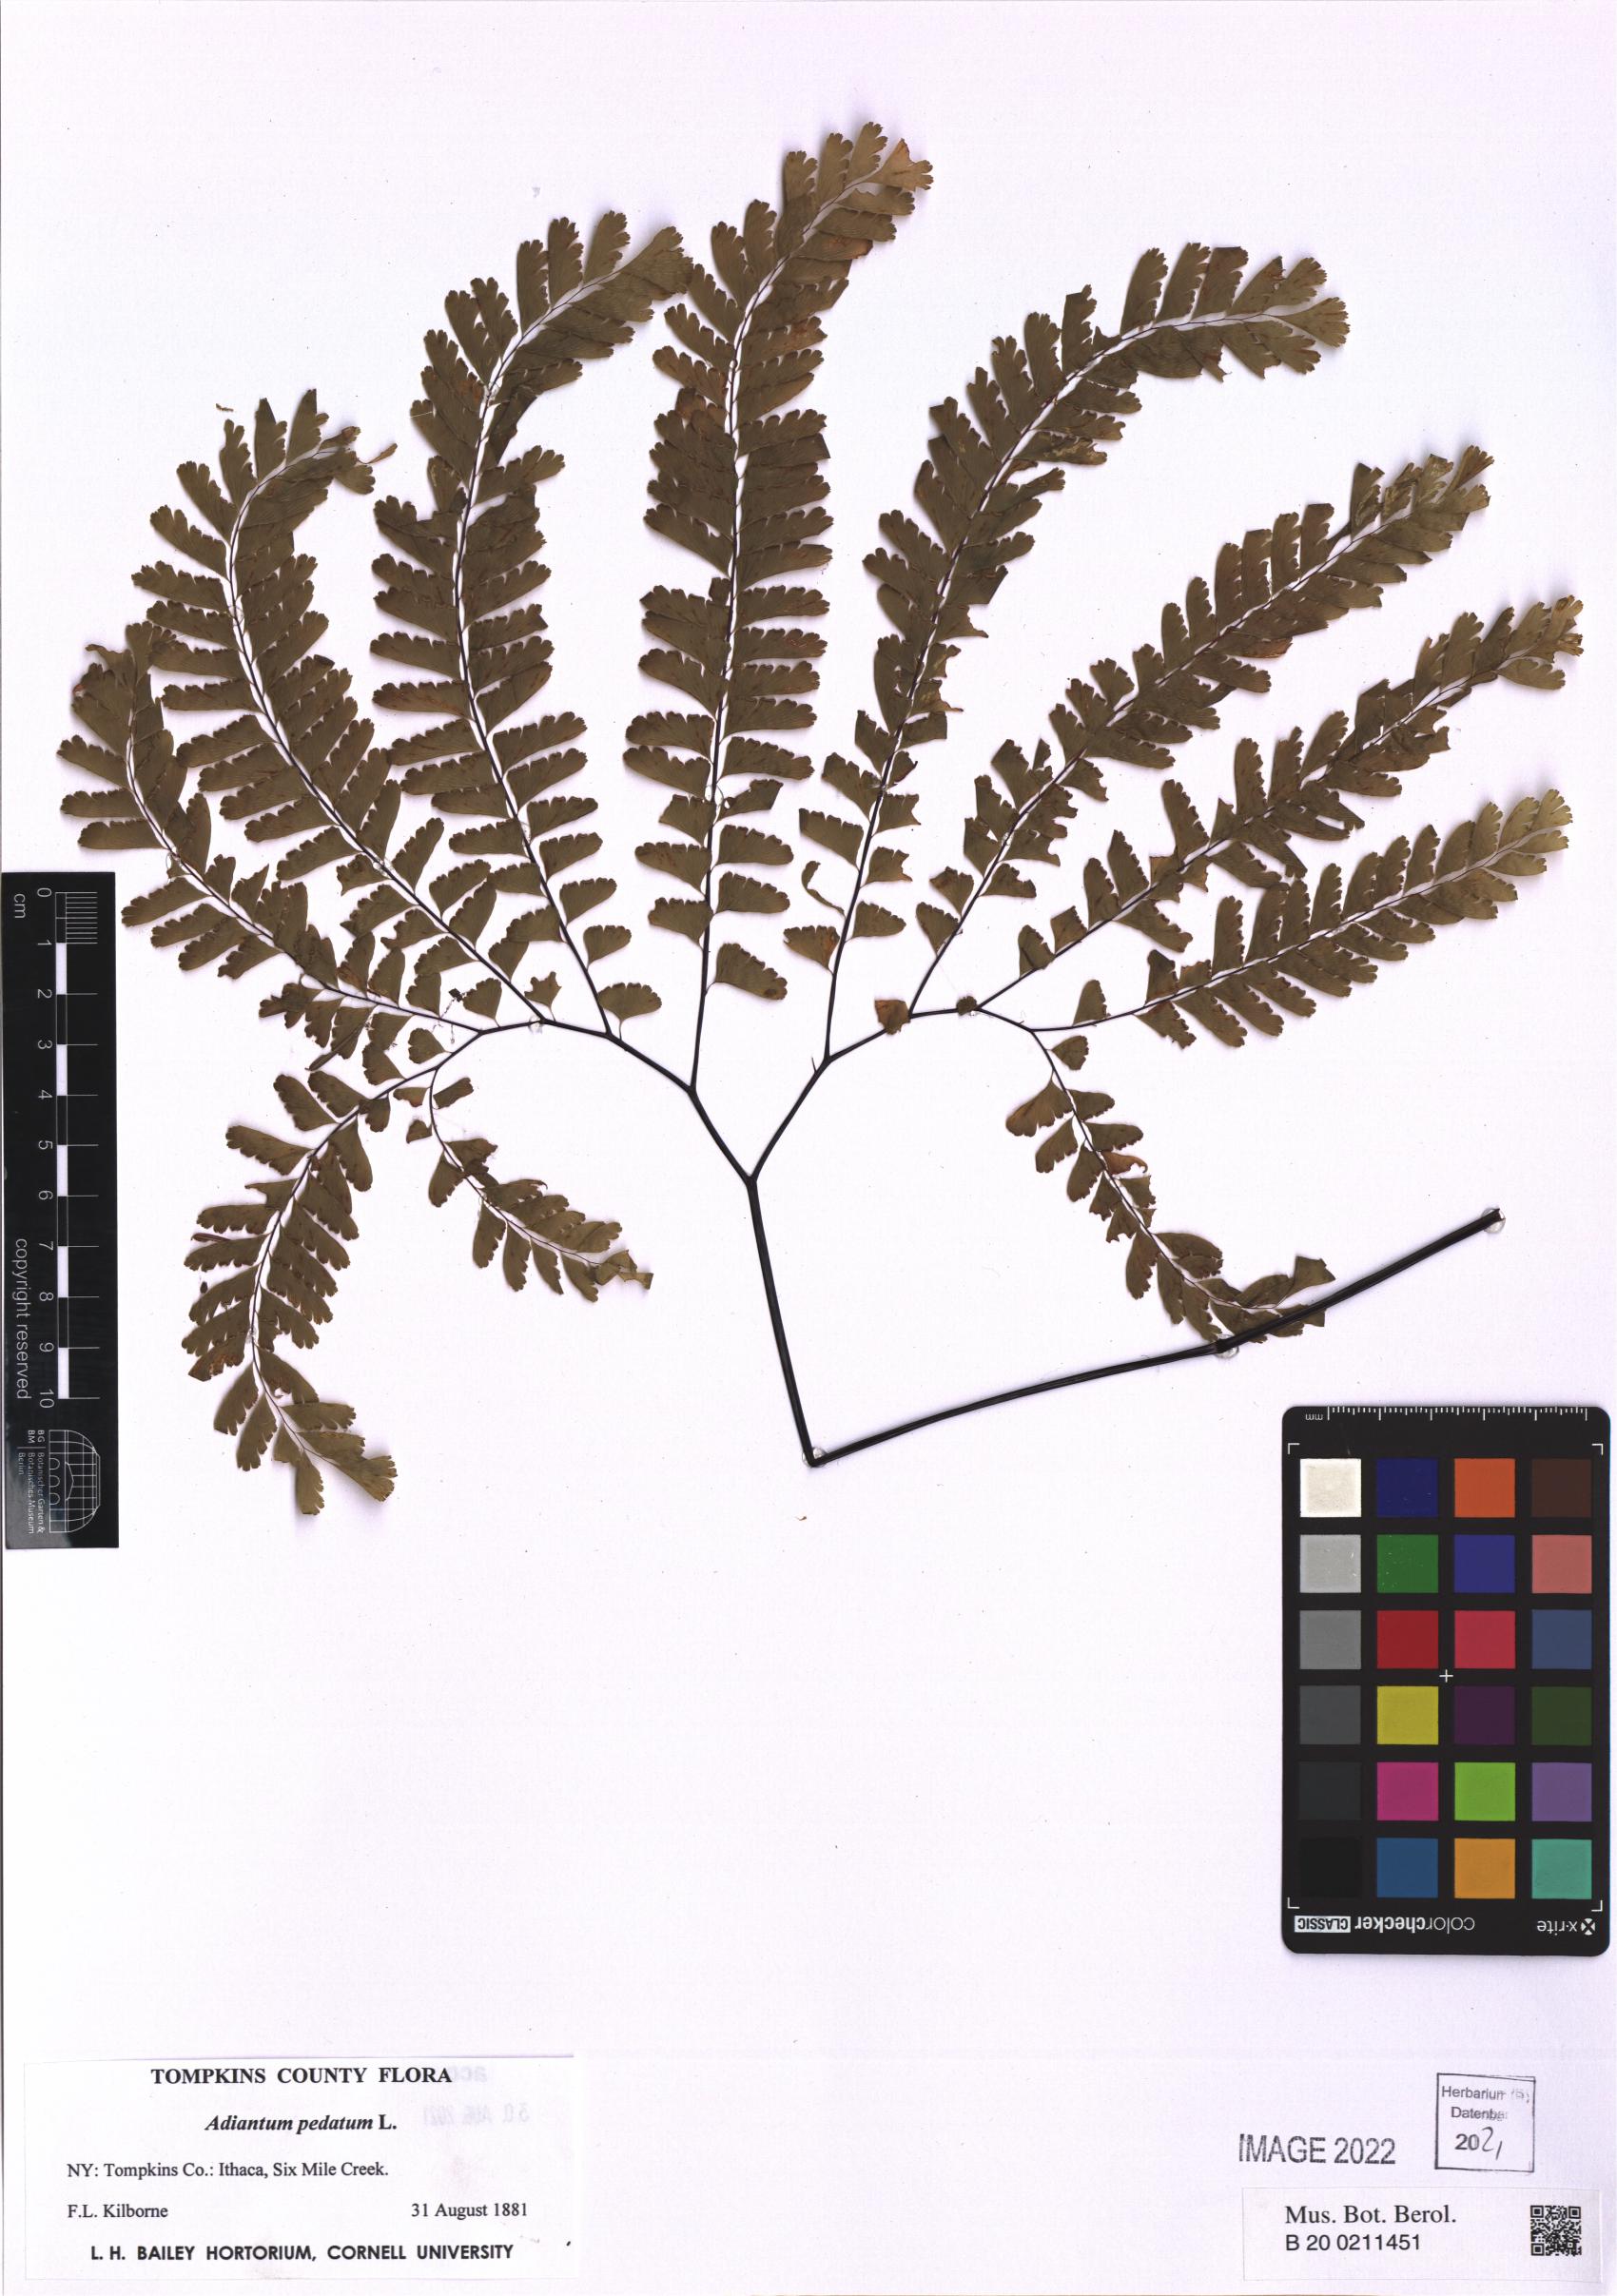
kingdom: Plantae
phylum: Tracheophyta
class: Polypodiopsida
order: Polypodiales
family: Pteridaceae
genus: Adiantum
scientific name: Adiantum pedatum
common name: Five-finger fern
